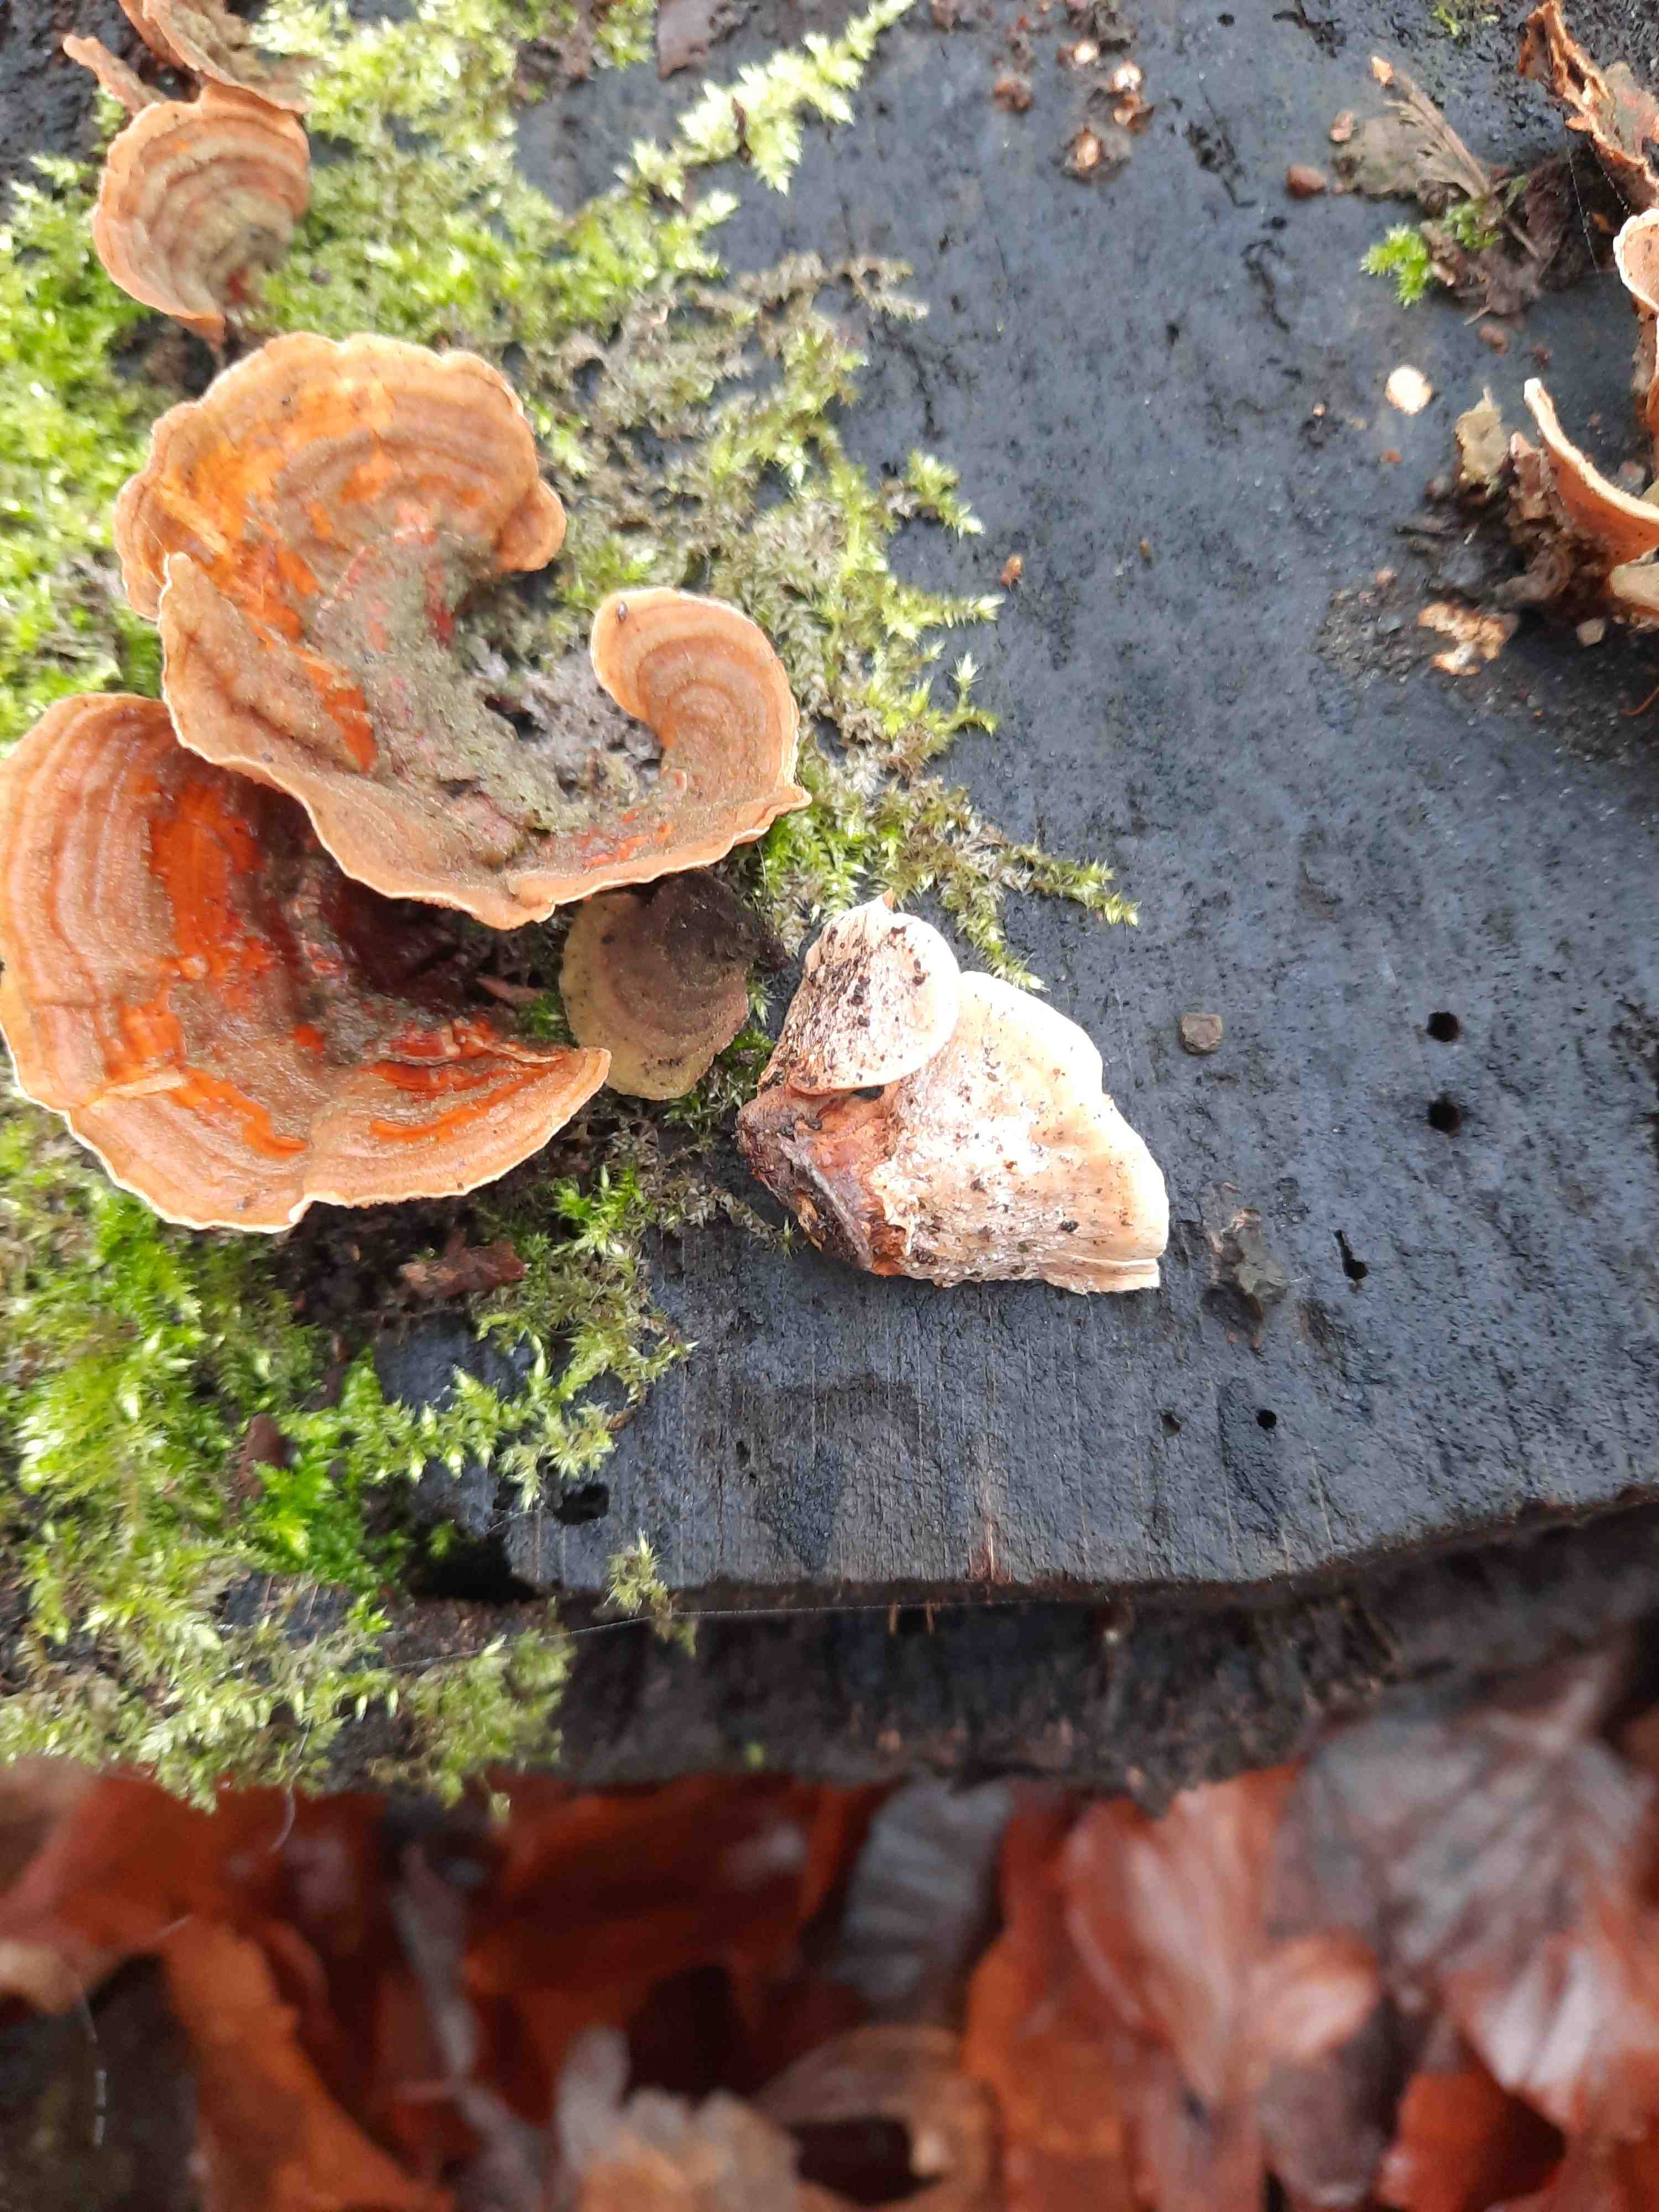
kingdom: Fungi
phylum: Basidiomycota
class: Agaricomycetes
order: Russulales
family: Stereaceae
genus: Stereum
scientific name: Stereum subtomentosum
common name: smuk lædersvamp
